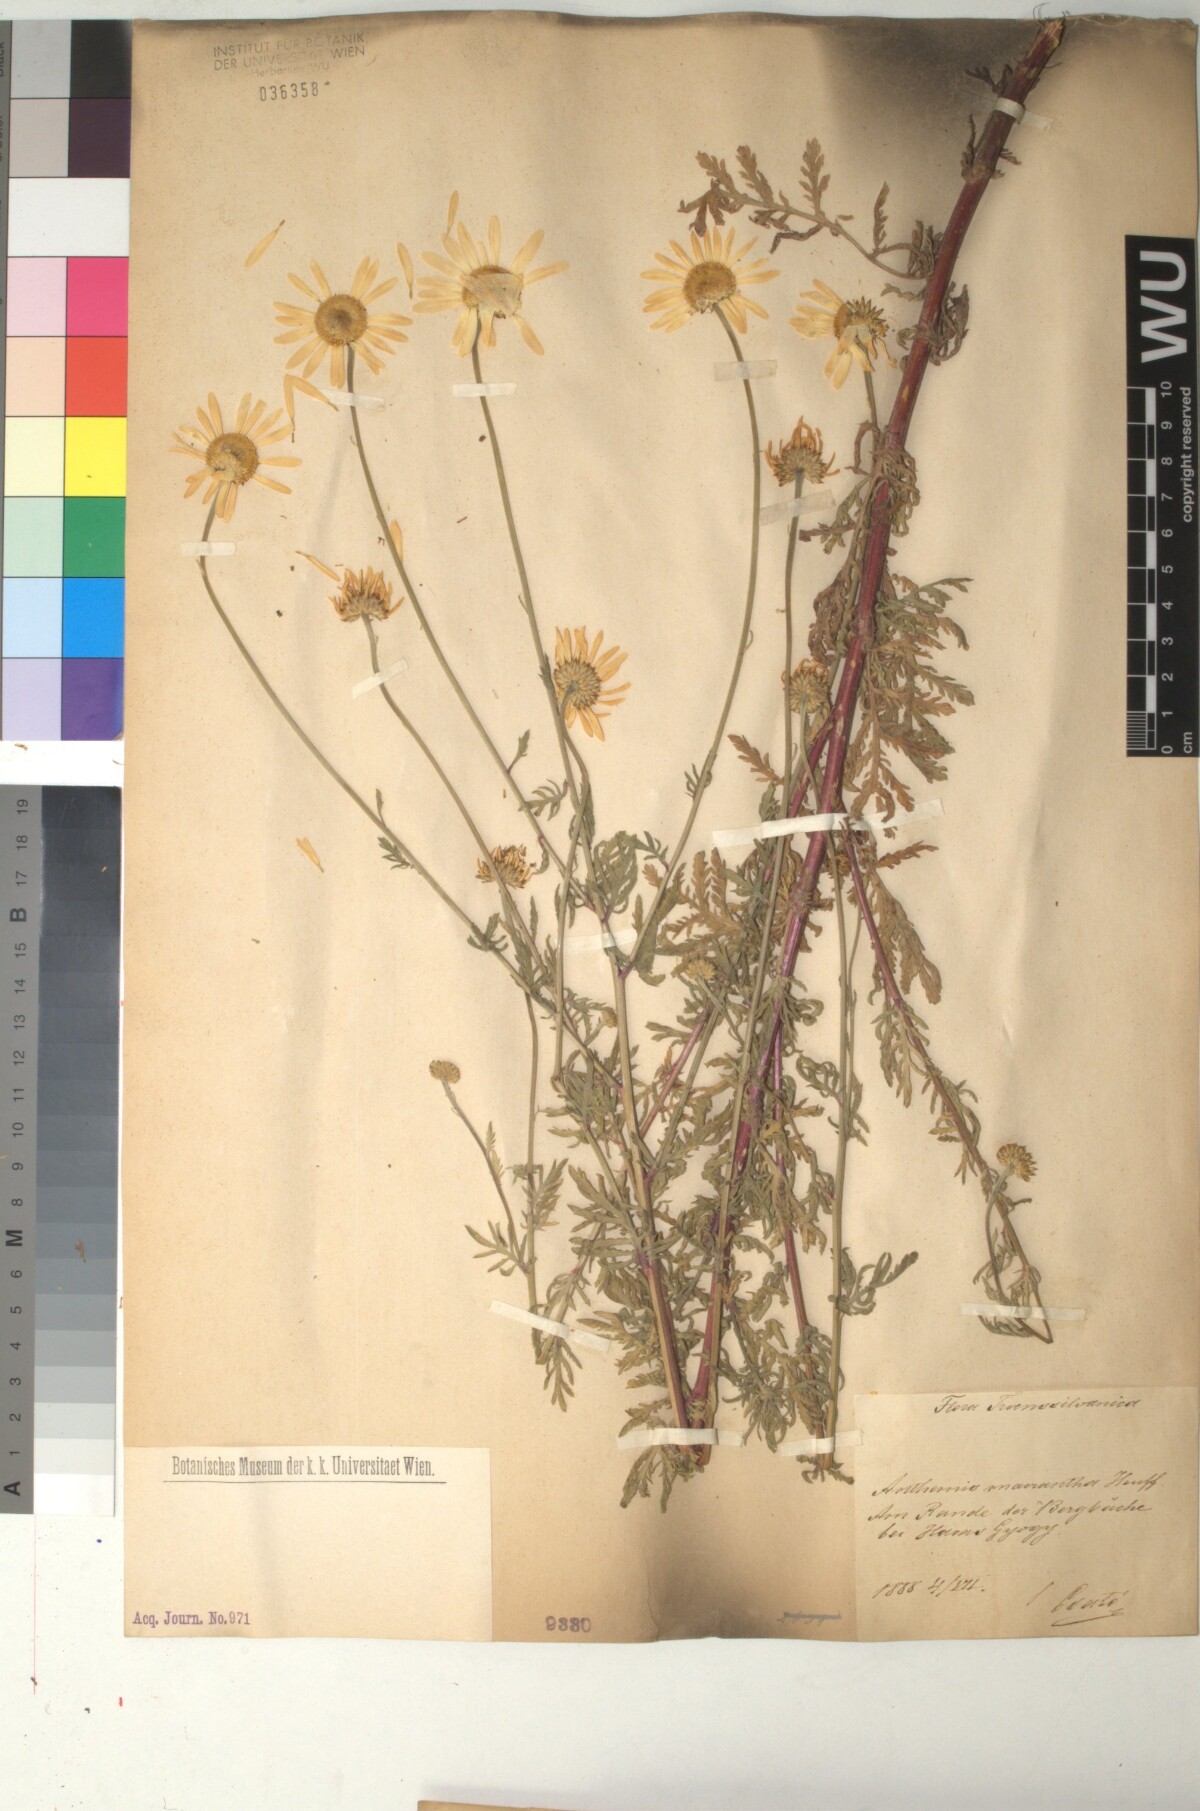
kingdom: Plantae
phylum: Tracheophyta
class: Magnoliopsida
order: Asterales
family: Asteraceae
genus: Cota
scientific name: Cota macrantha
